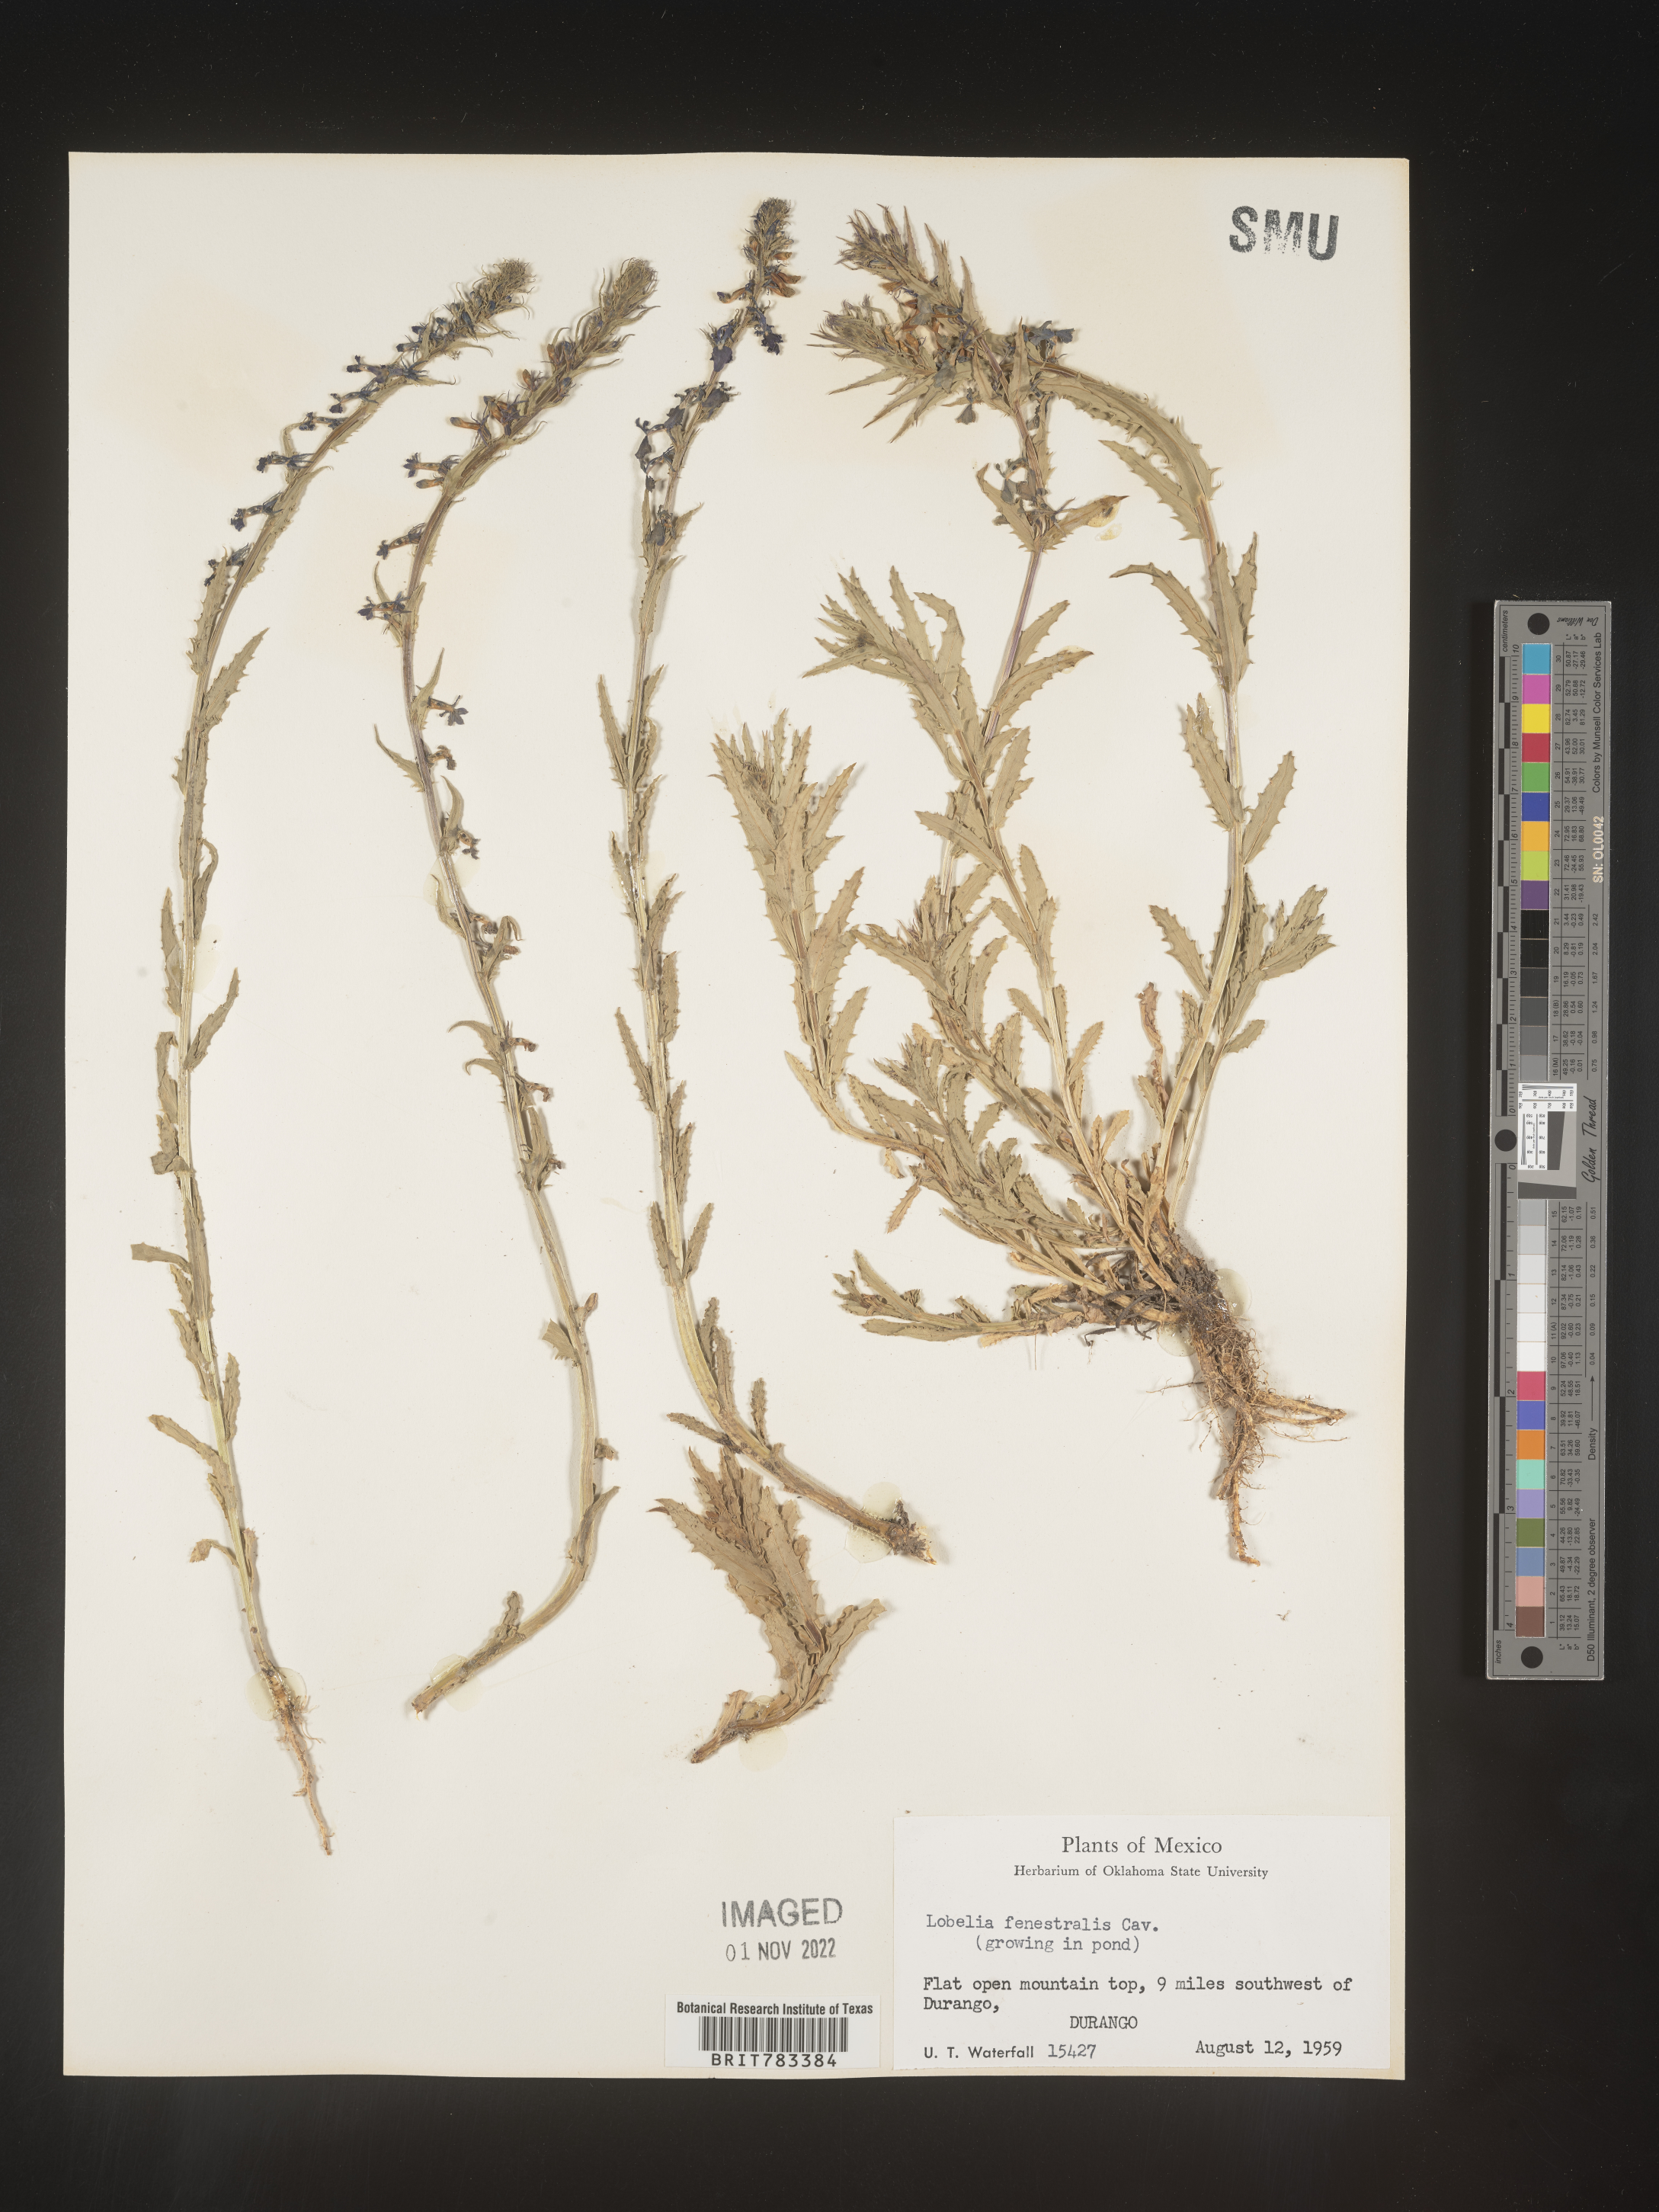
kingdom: Plantae
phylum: Tracheophyta
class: Magnoliopsida
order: Asterales
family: Campanulaceae
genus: Lobelia
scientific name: Lobelia
